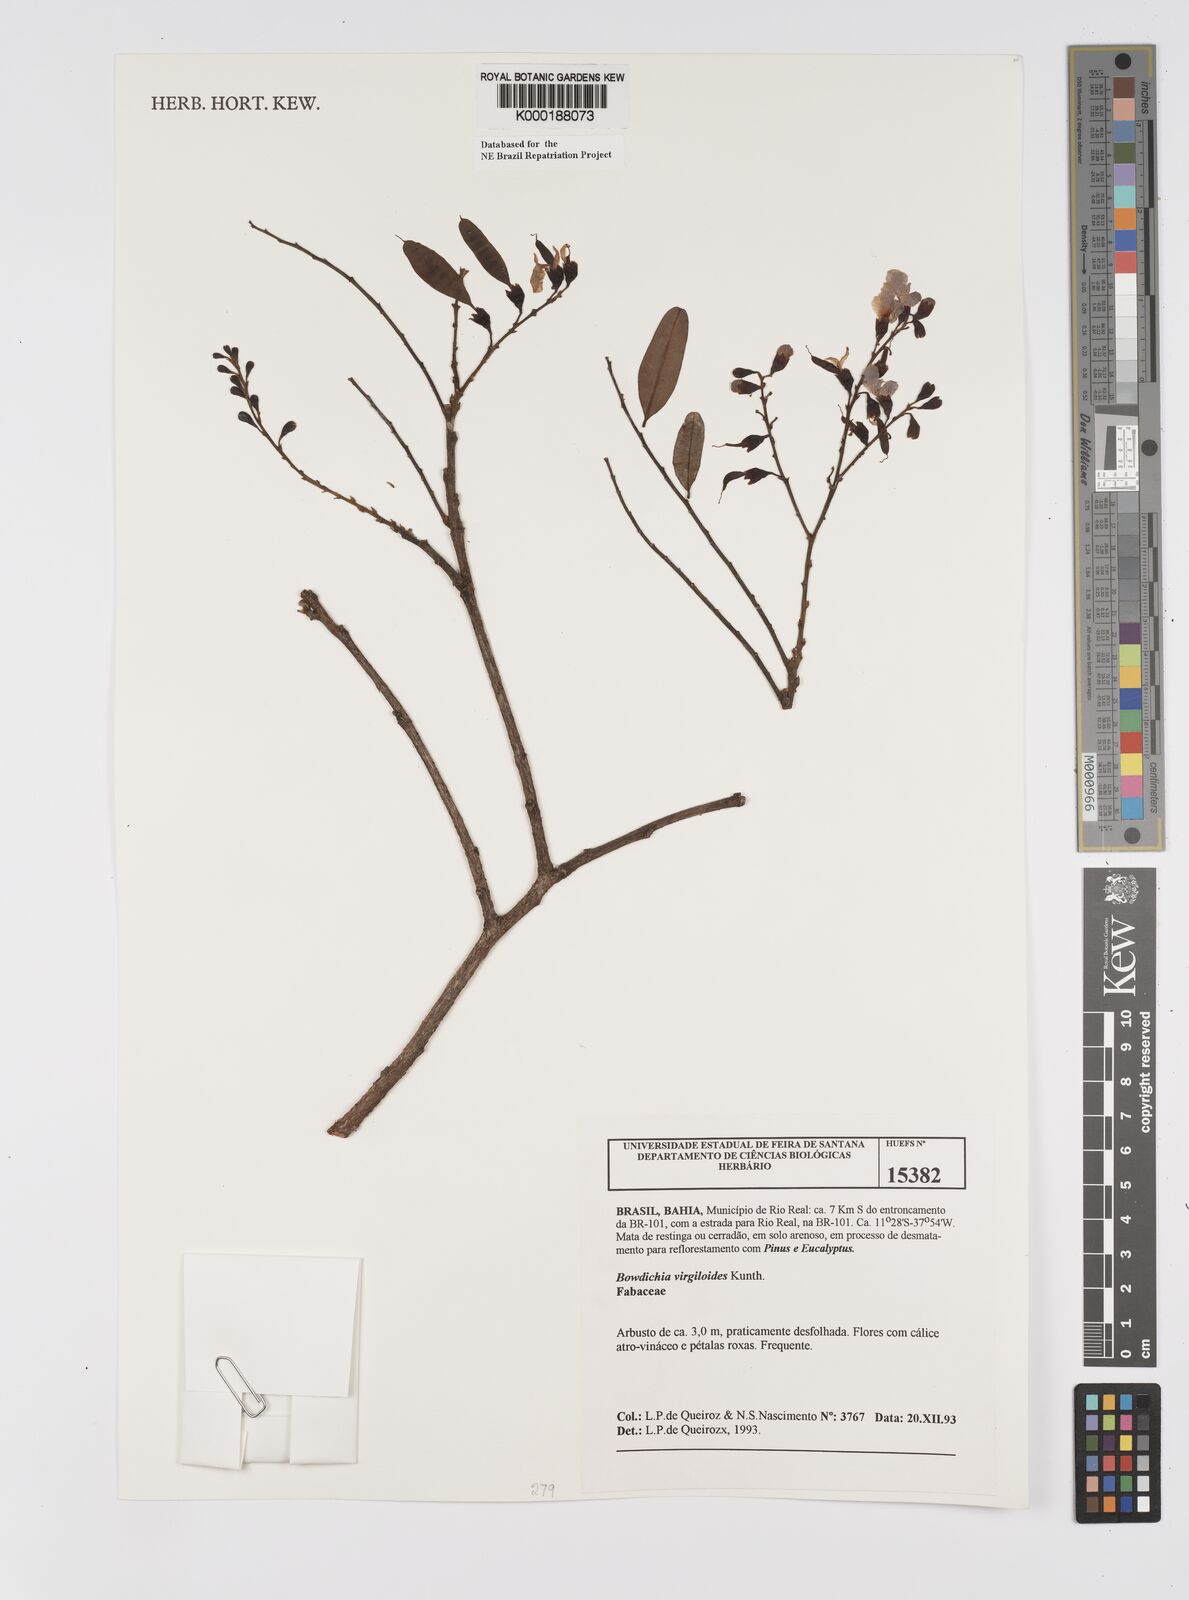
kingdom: Plantae
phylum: Tracheophyta
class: Magnoliopsida
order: Fabales
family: Fabaceae
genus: Bowdichia
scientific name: Bowdichia virgilioides
